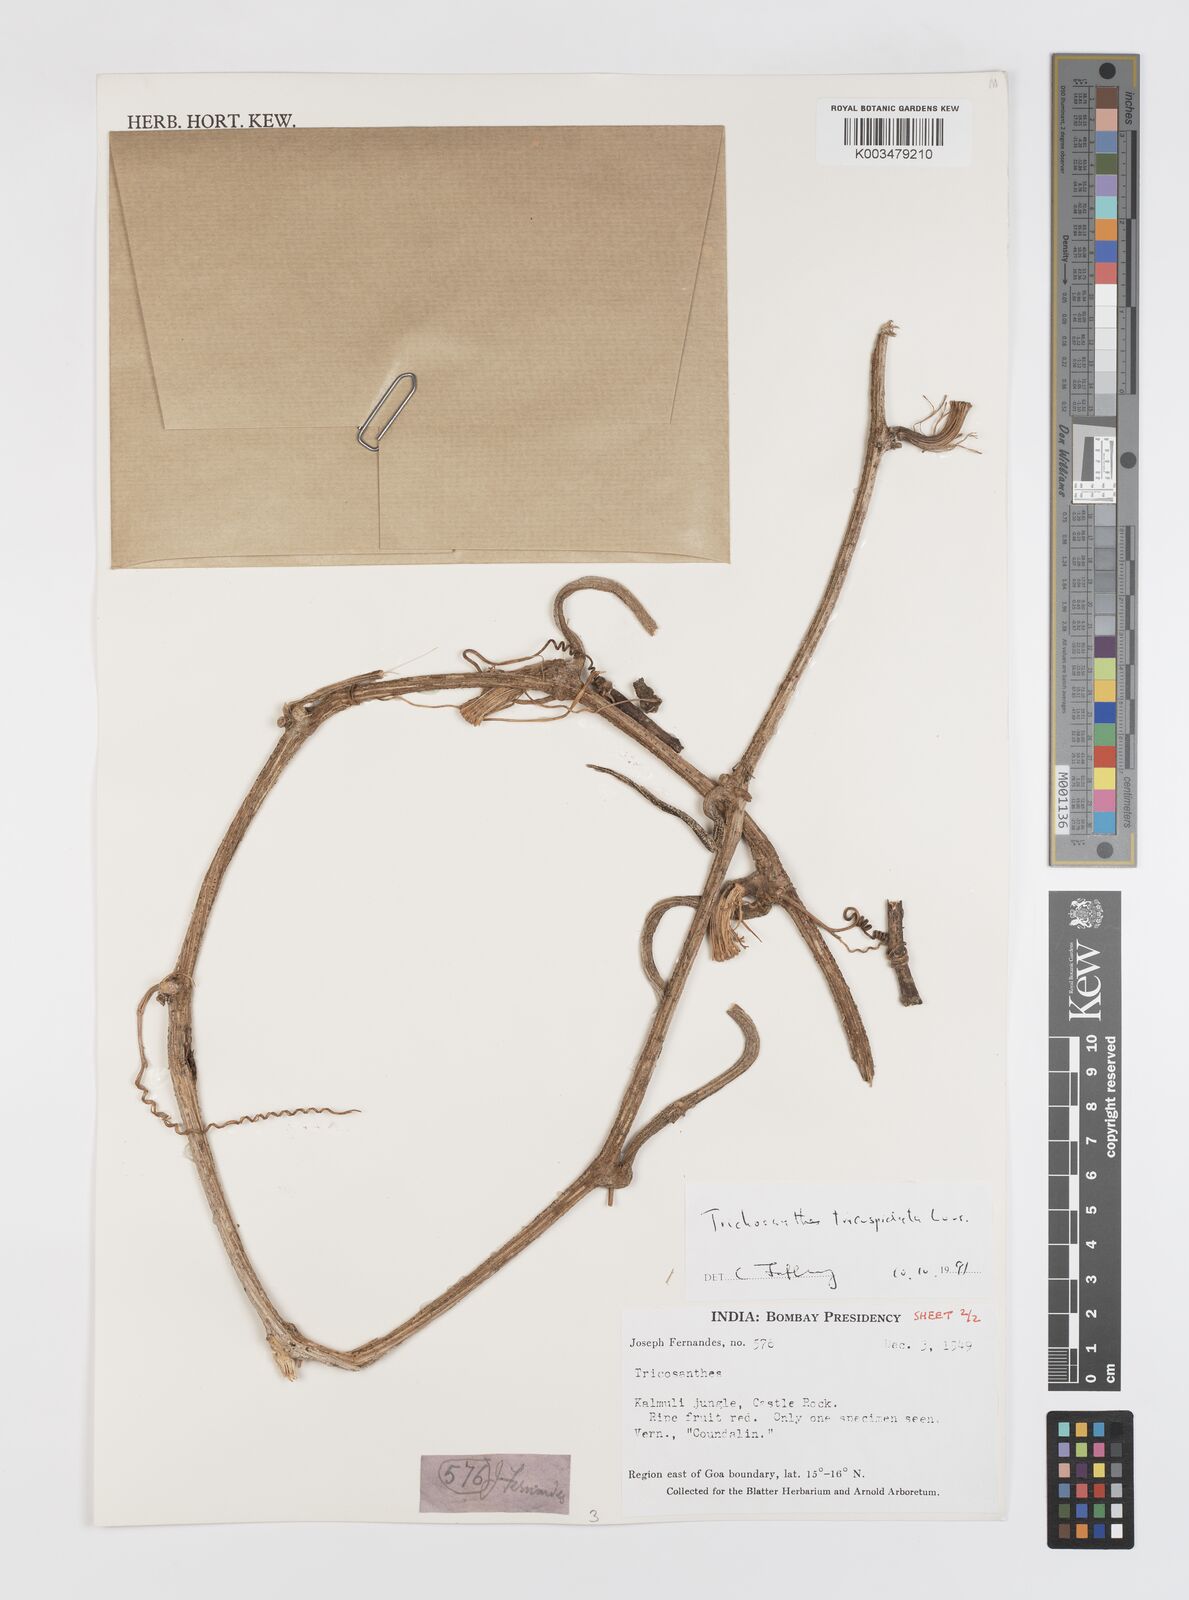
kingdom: Plantae
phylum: Tracheophyta
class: Magnoliopsida
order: Cucurbitales
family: Cucurbitaceae
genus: Trichosanthes
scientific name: Trichosanthes tricuspidata
